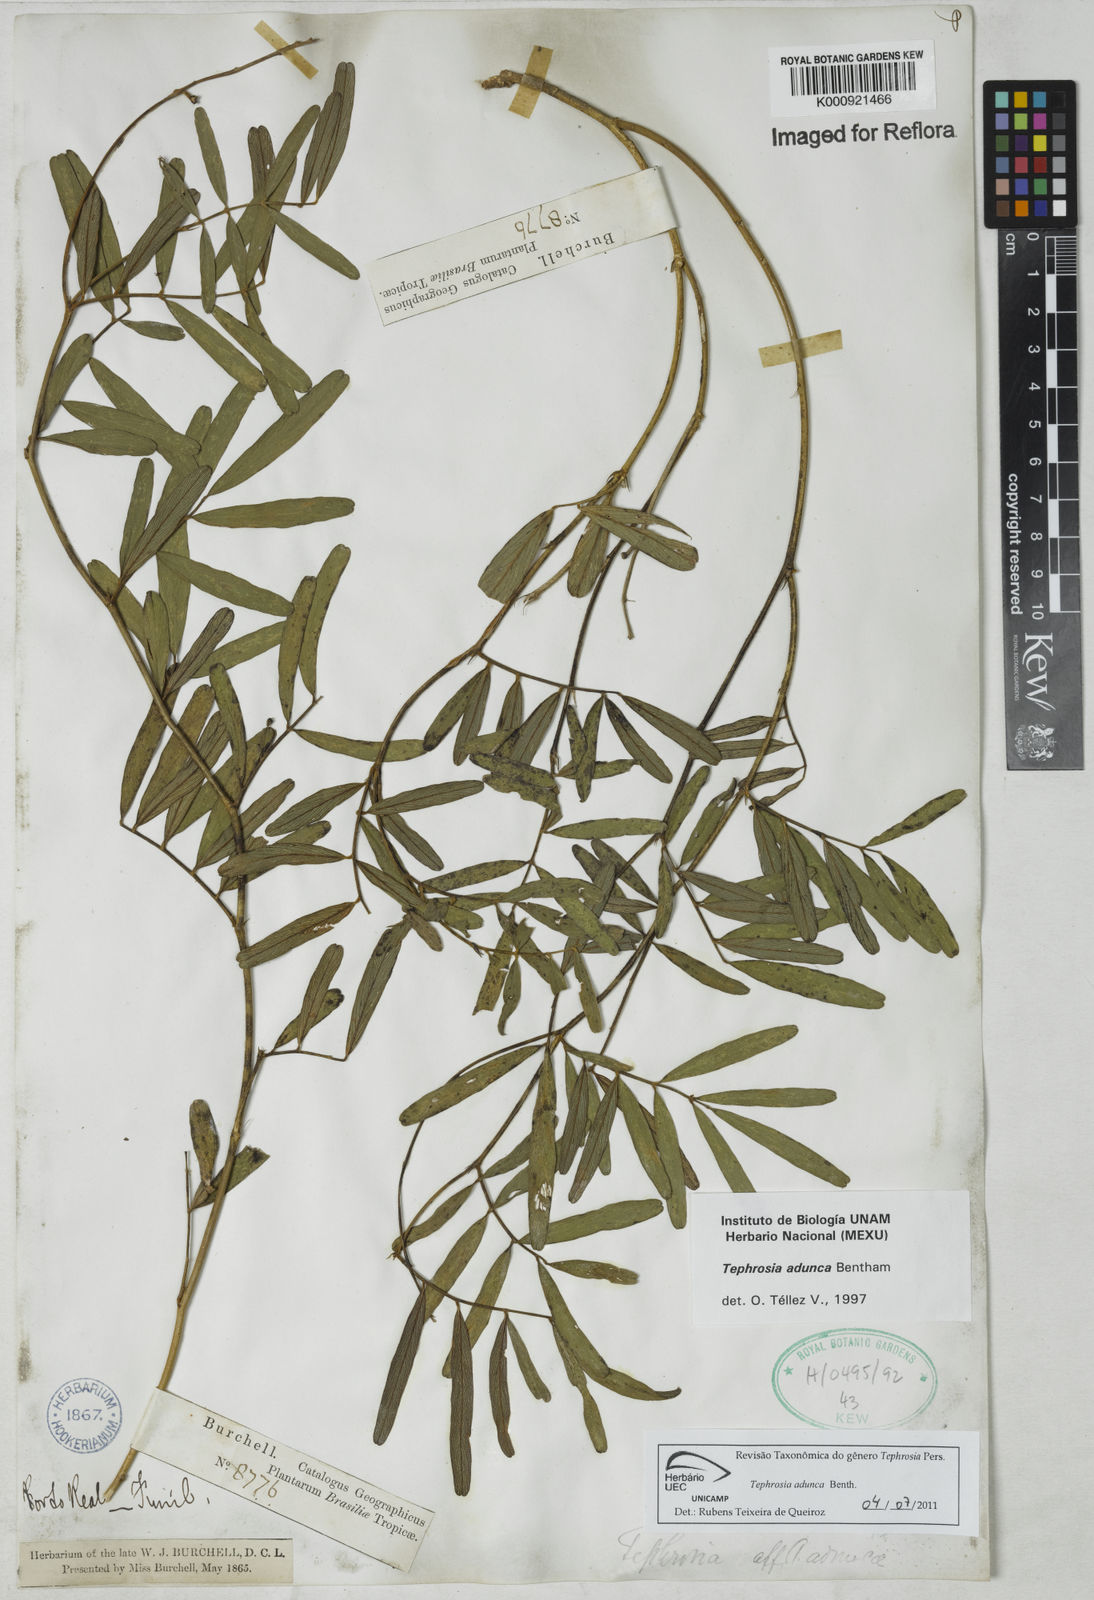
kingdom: Plantae
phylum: Tracheophyta
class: Magnoliopsida
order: Fabales
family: Fabaceae
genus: Tephrosia
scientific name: Tephrosia adunca
